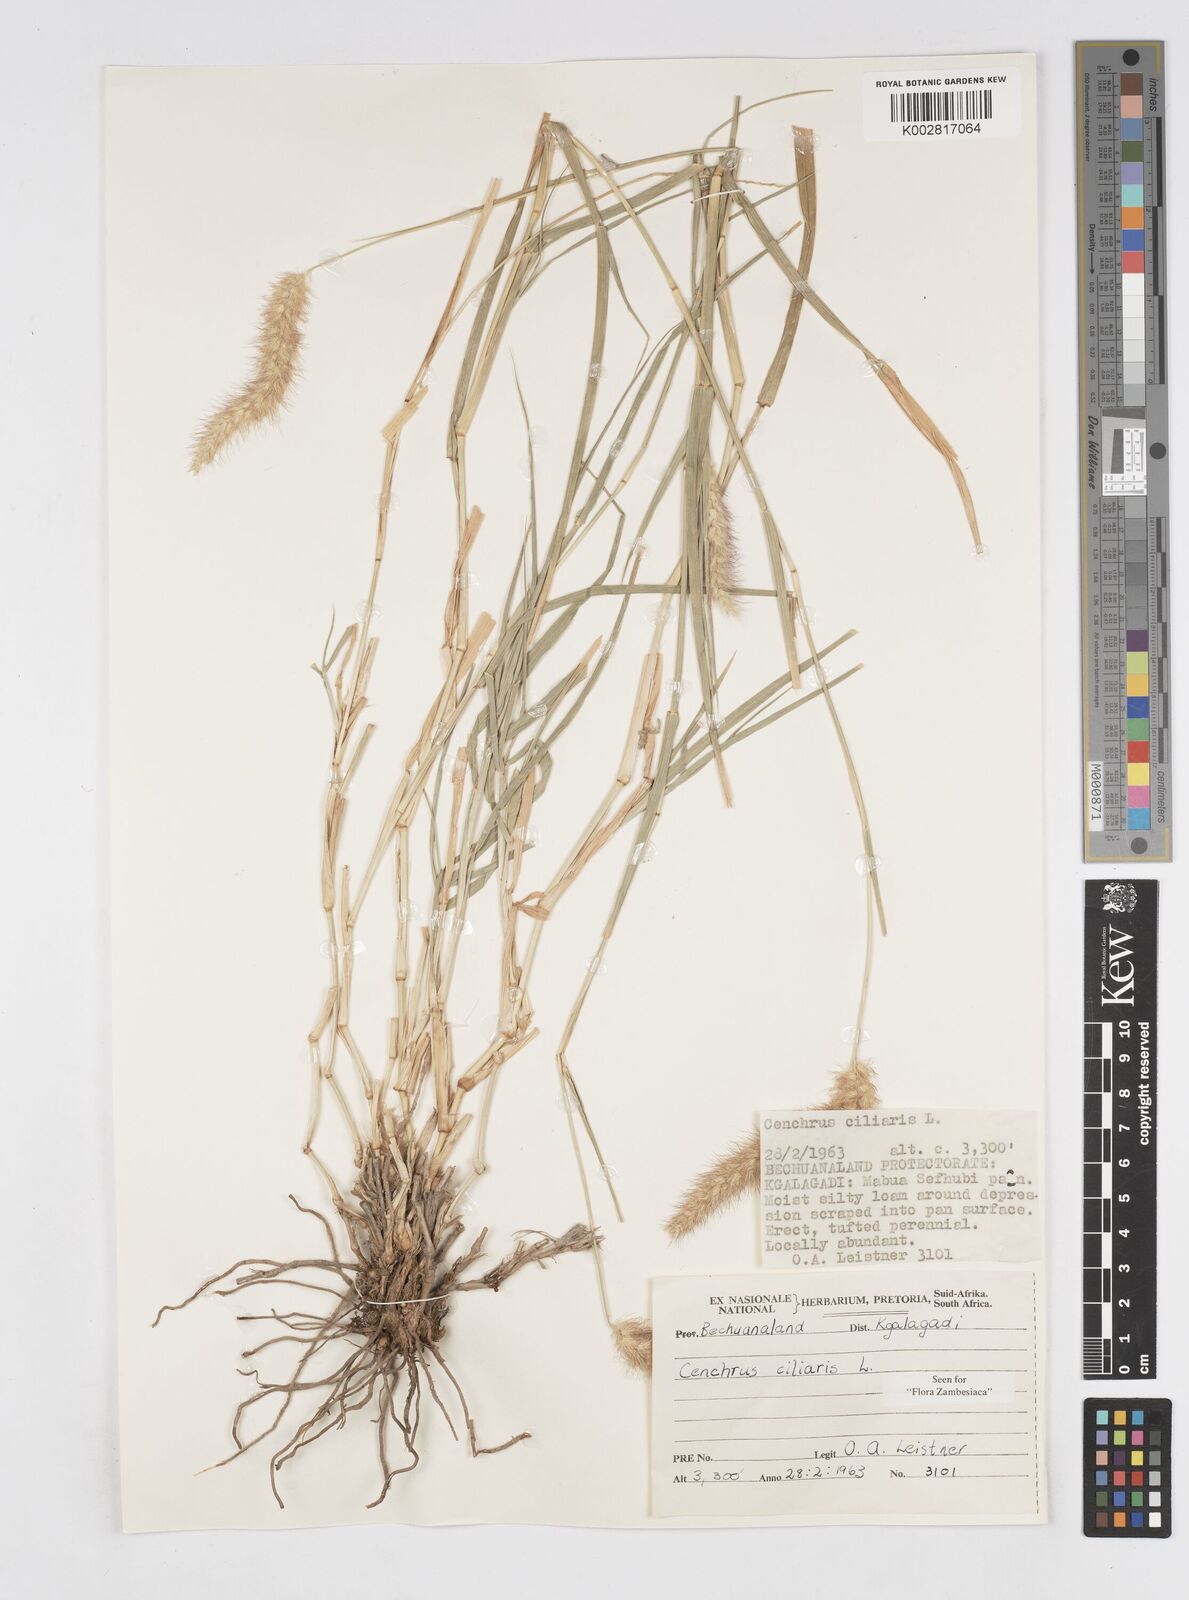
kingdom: Plantae
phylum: Tracheophyta
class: Liliopsida
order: Poales
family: Poaceae
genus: Cenchrus
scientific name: Cenchrus ciliaris
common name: Buffelgrass
